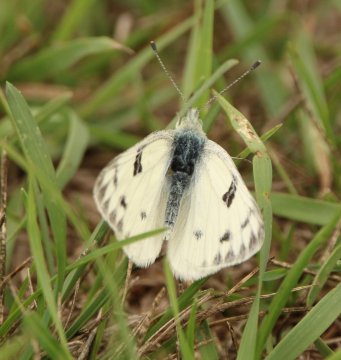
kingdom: Animalia
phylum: Arthropoda
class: Insecta
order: Lepidoptera
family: Pieridae
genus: Pontia
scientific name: Pontia occidentalis
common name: Western White
